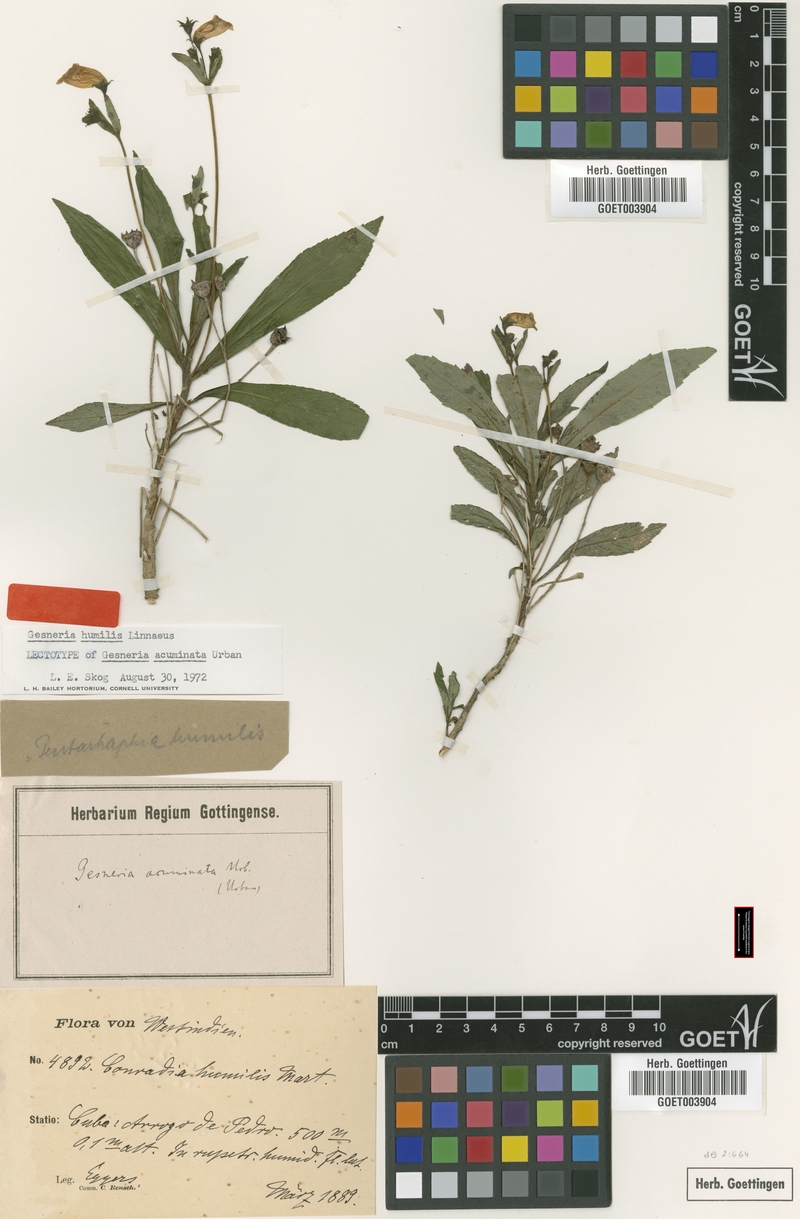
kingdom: Plantae
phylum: Tracheophyta
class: Magnoliopsida
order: Lamiales
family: Gesneriaceae
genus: Gesneria
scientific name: Gesneria humilis
